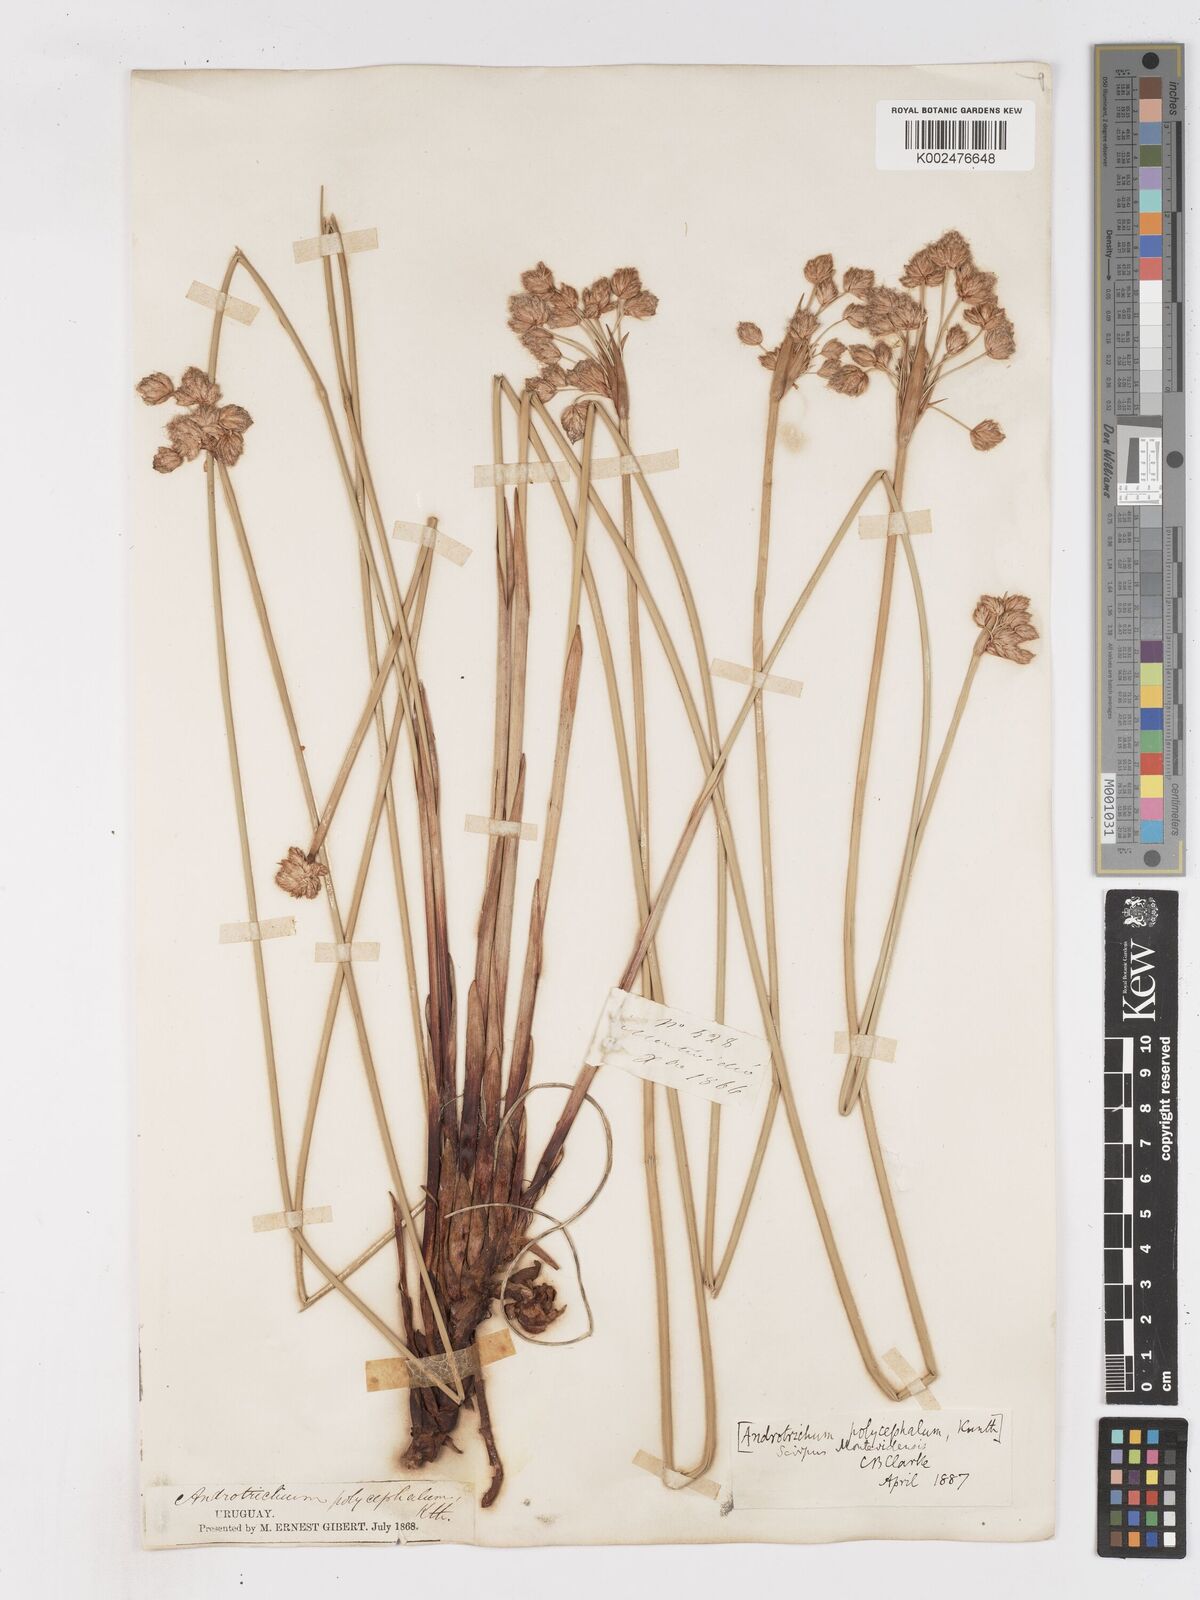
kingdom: Plantae
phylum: Tracheophyta
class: Liliopsida
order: Poales
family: Cyperaceae
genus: Cyperus
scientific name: Cyperus trigynus
